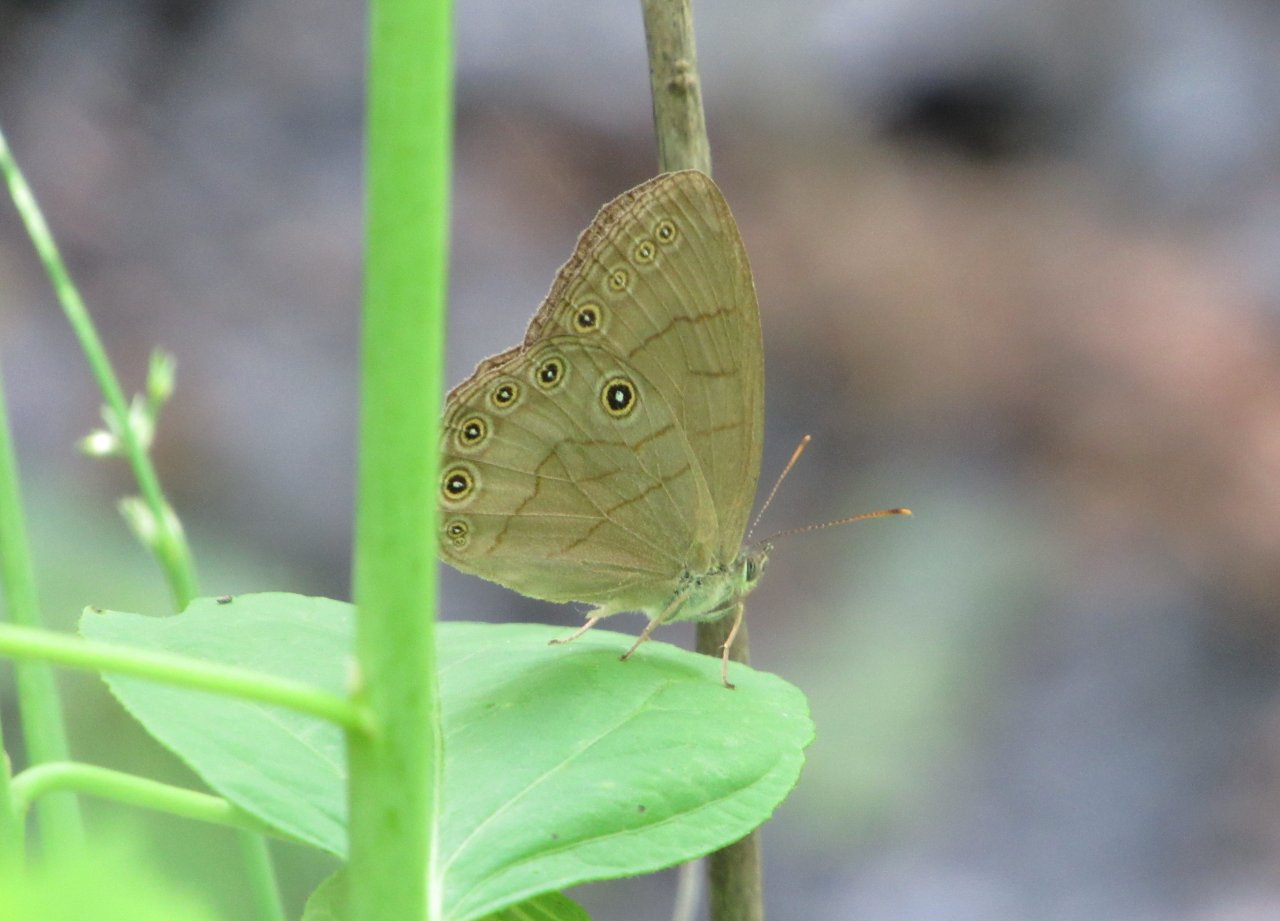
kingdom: Animalia
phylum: Arthropoda
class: Insecta
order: Lepidoptera
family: Nymphalidae
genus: Lethe
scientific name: Lethe eurydice
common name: Appalachian Eyed Brown
